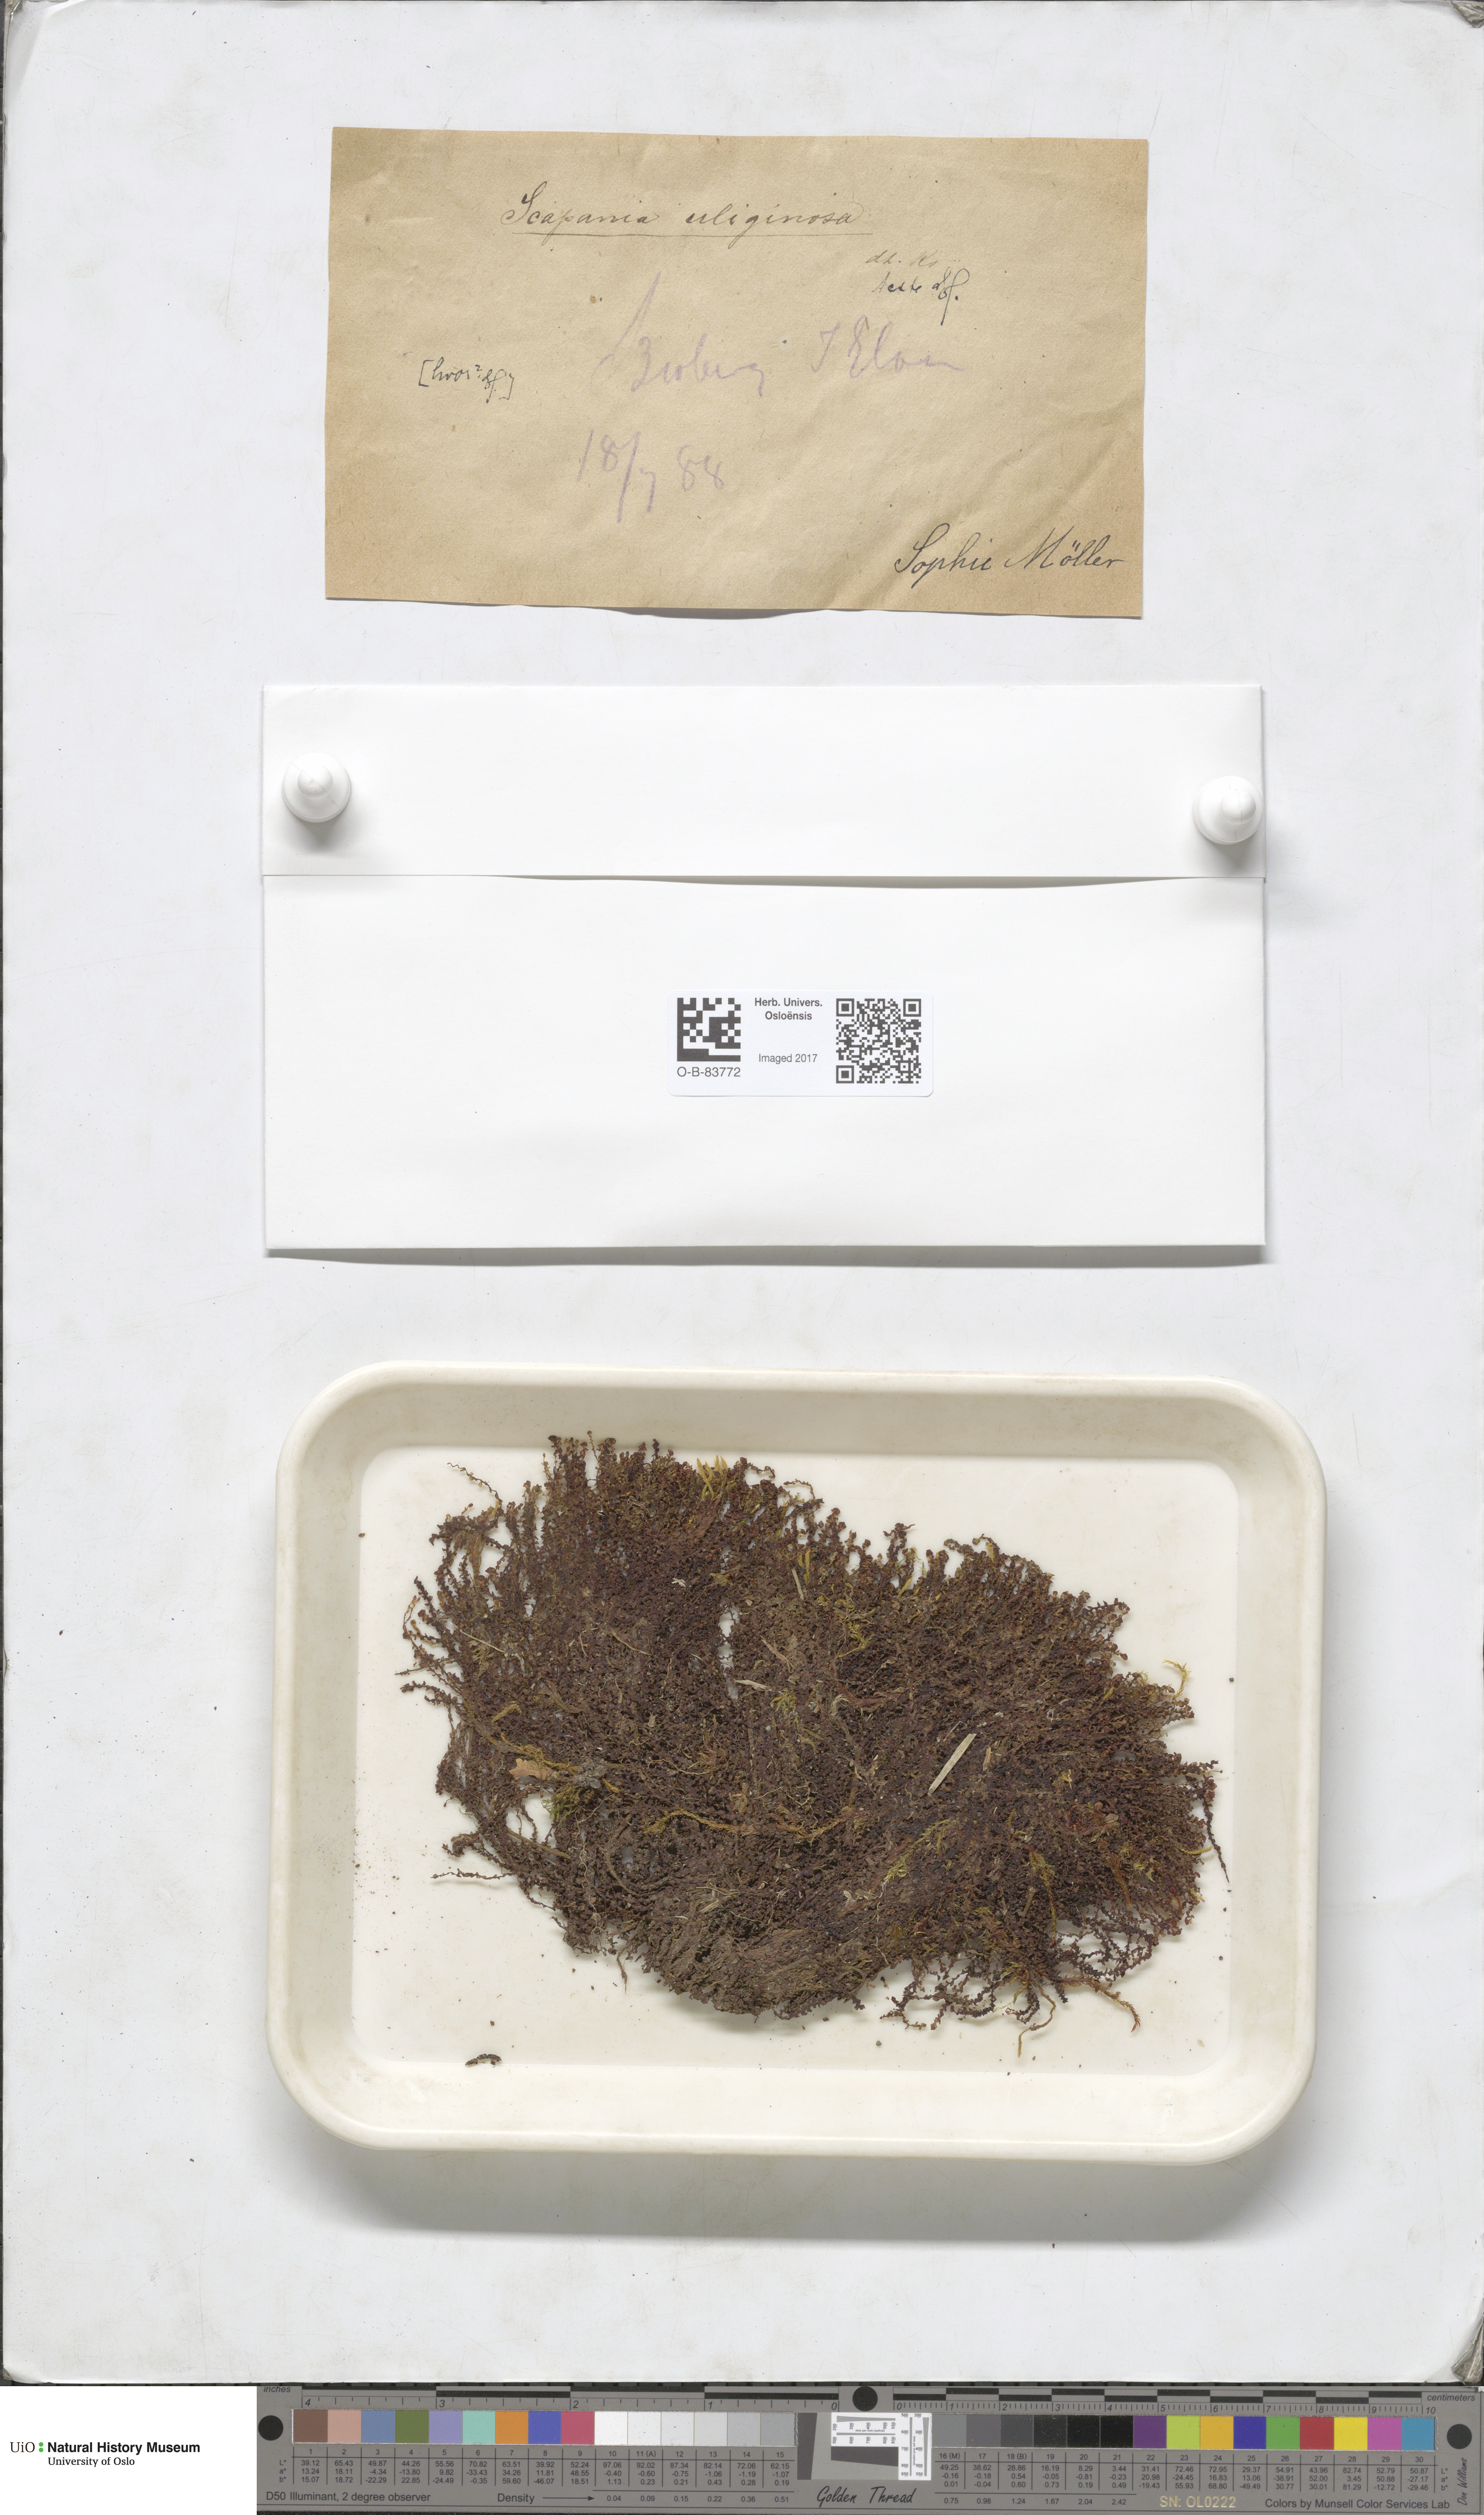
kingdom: Plantae
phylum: Marchantiophyta
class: Jungermanniopsida
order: Jungermanniales
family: Scapaniaceae
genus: Scapania
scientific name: Scapania uliginosa
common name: Marsh earwort
